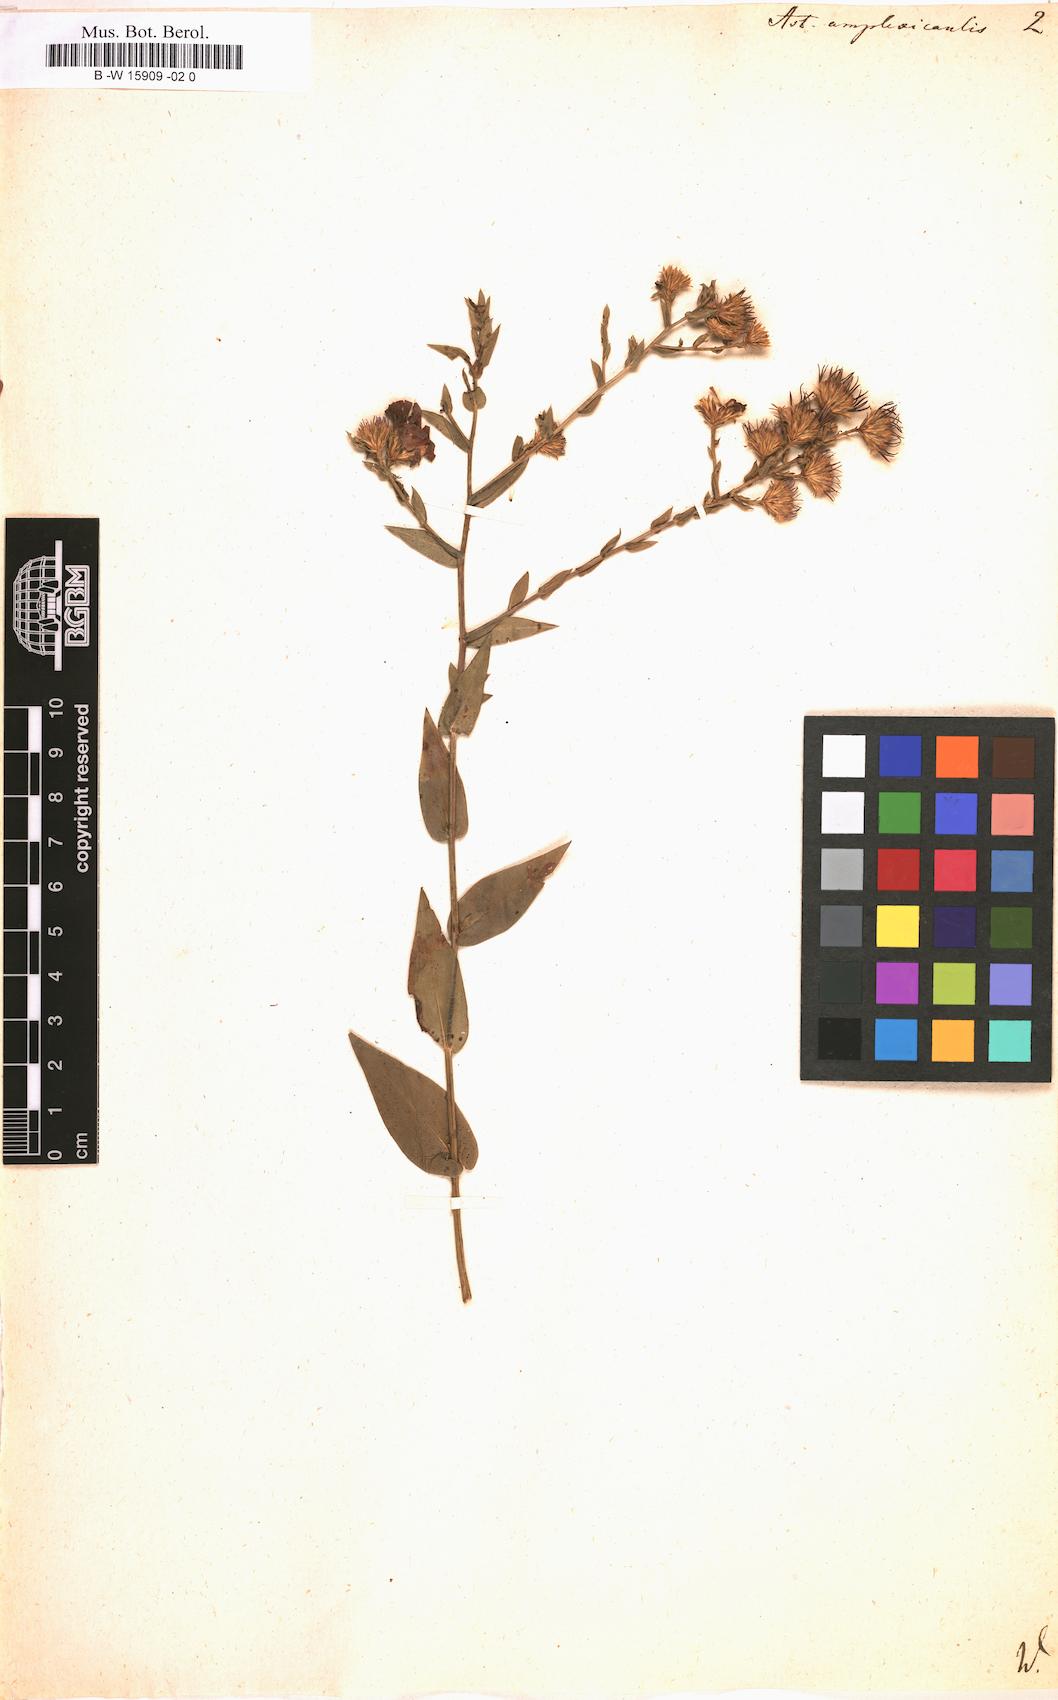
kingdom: Plantae
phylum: Tracheophyta
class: Magnoliopsida
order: Asterales
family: Asteraceae
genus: Symphyotrichum
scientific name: Symphyotrichum patens
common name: Late purple aster
